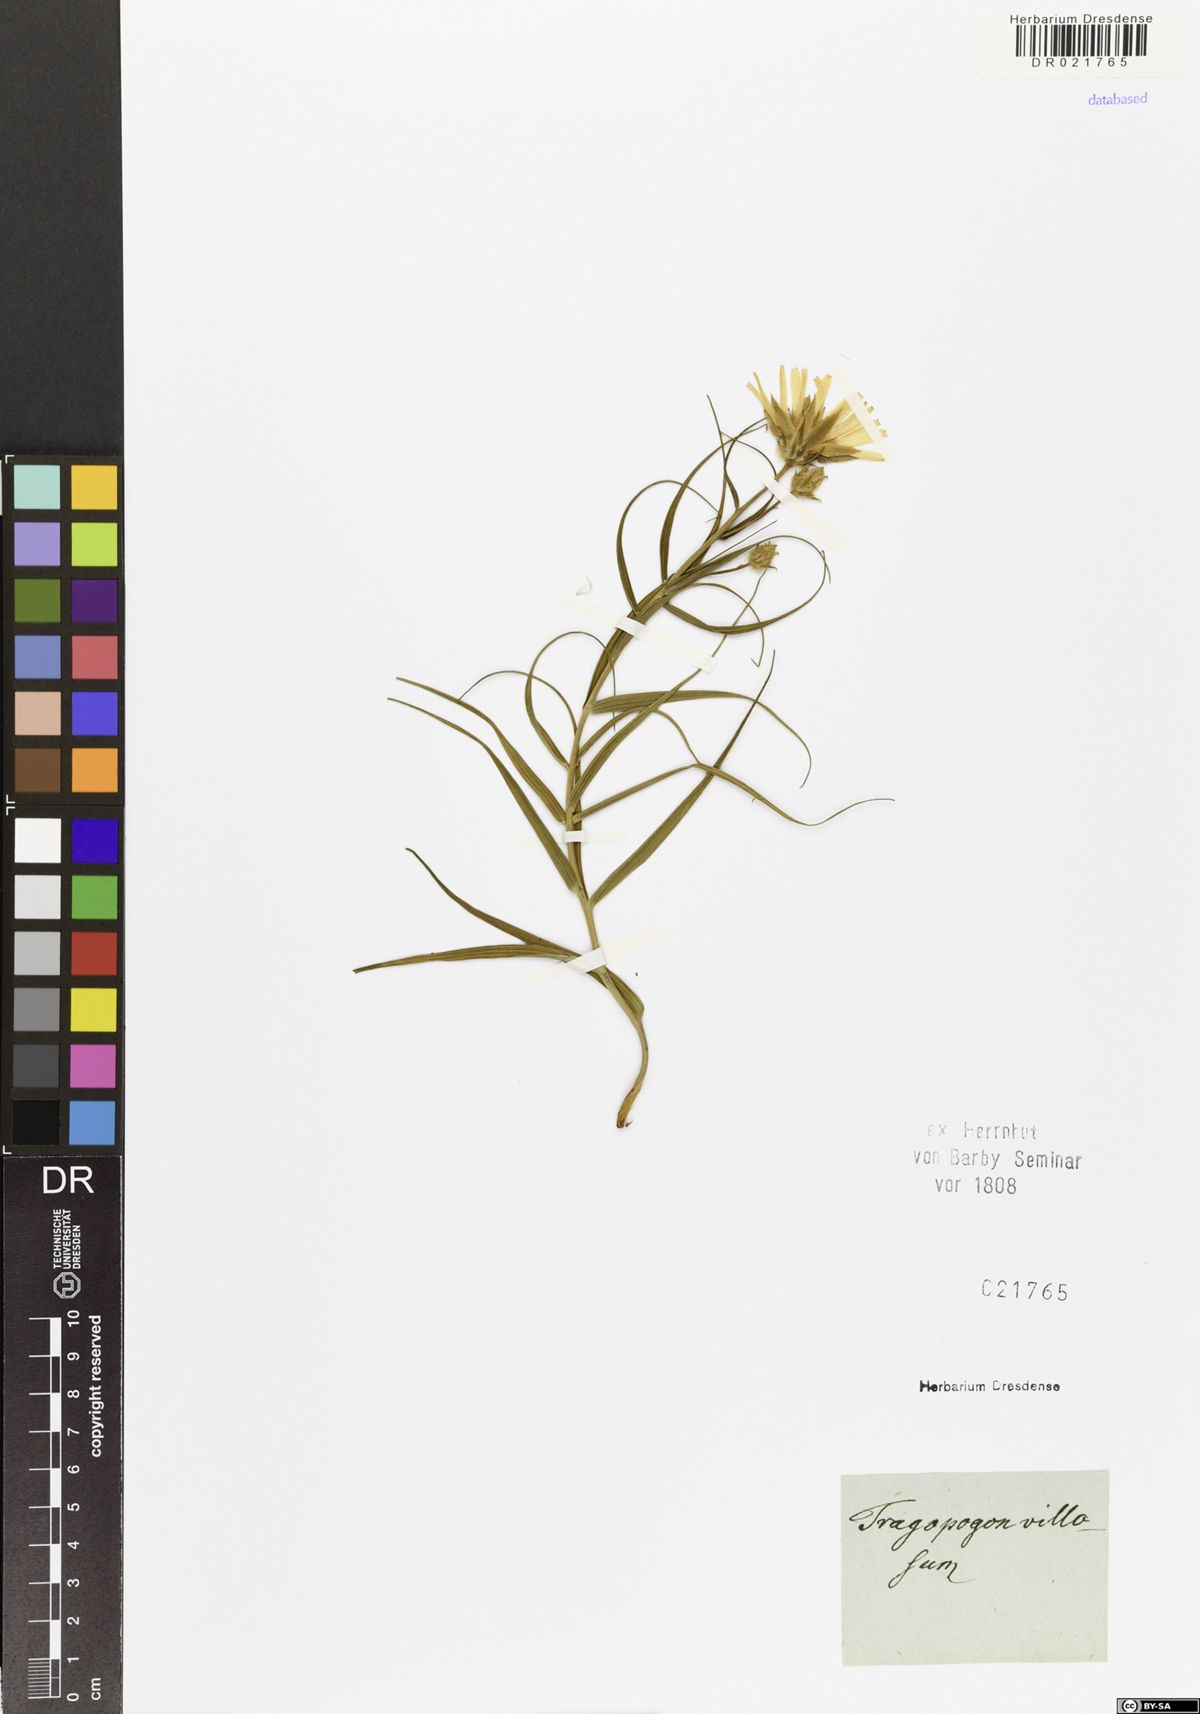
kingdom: Plantae
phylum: Tracheophyta
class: Magnoliopsida
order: Asterales
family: Asteraceae
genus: Gelasia
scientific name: Gelasia ensifolia
